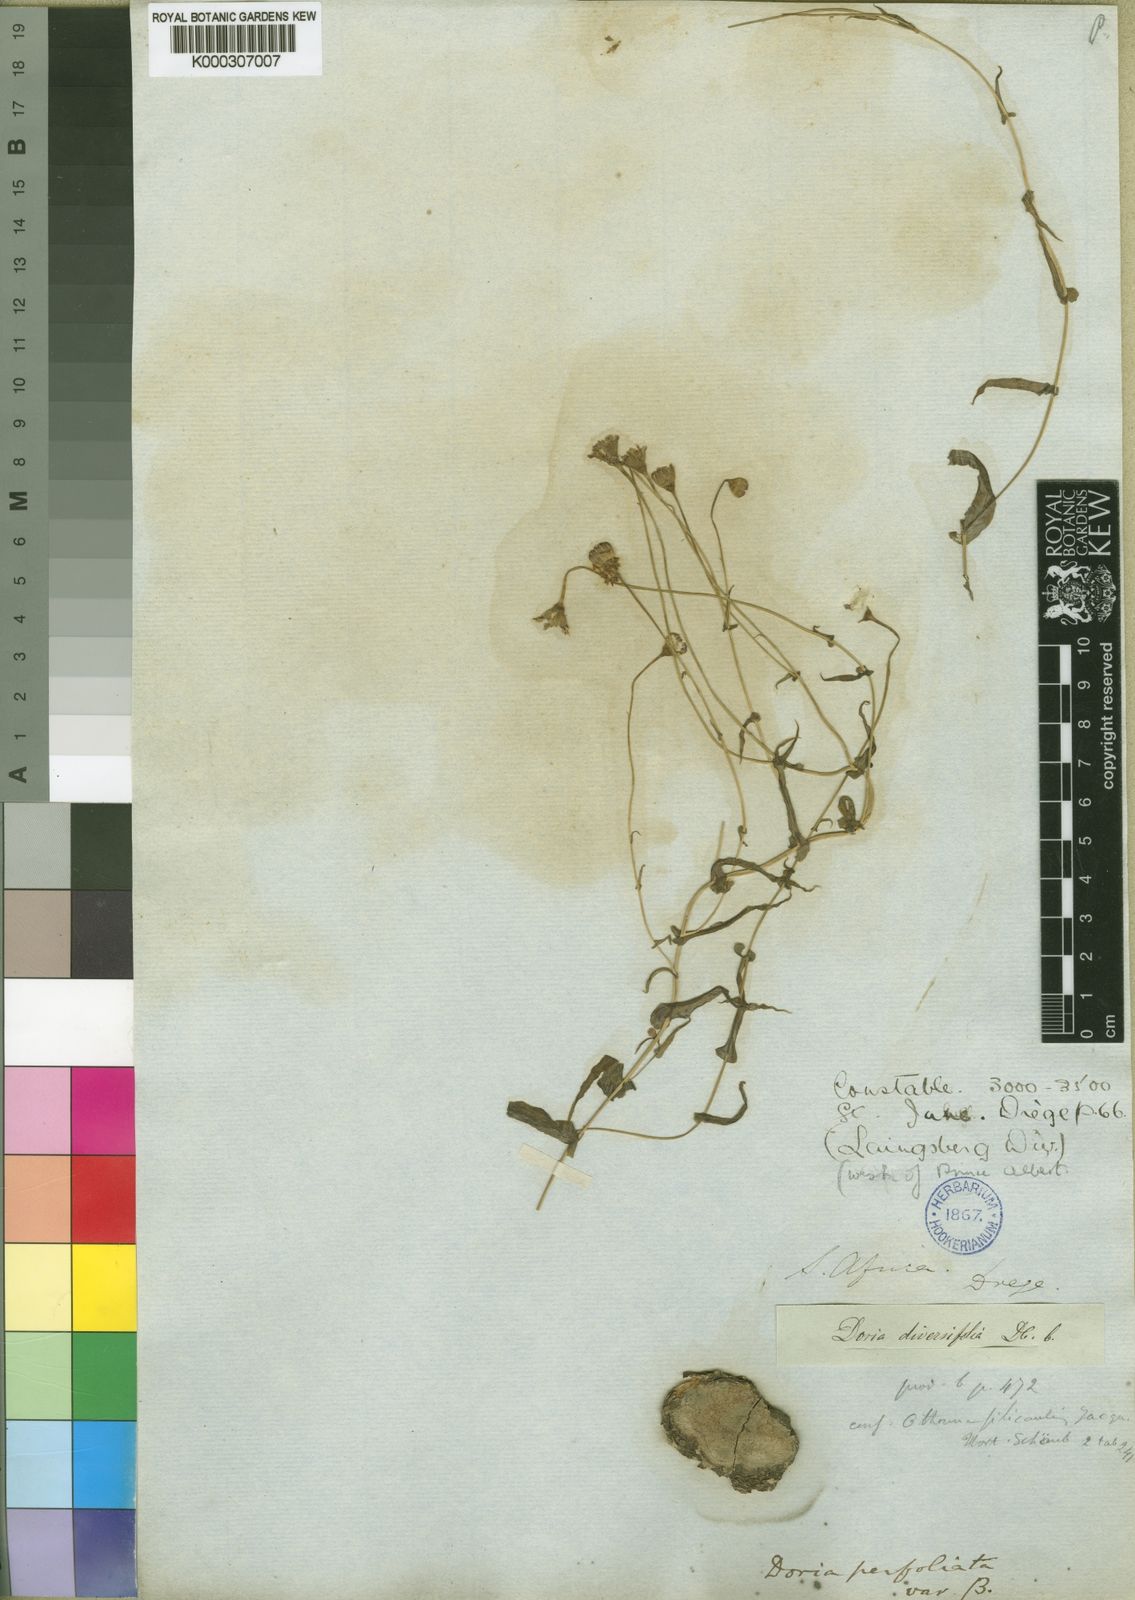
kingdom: Plantae
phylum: Tracheophyta
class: Magnoliopsida
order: Asterales
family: Asteraceae
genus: Othonna
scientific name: Othonna
